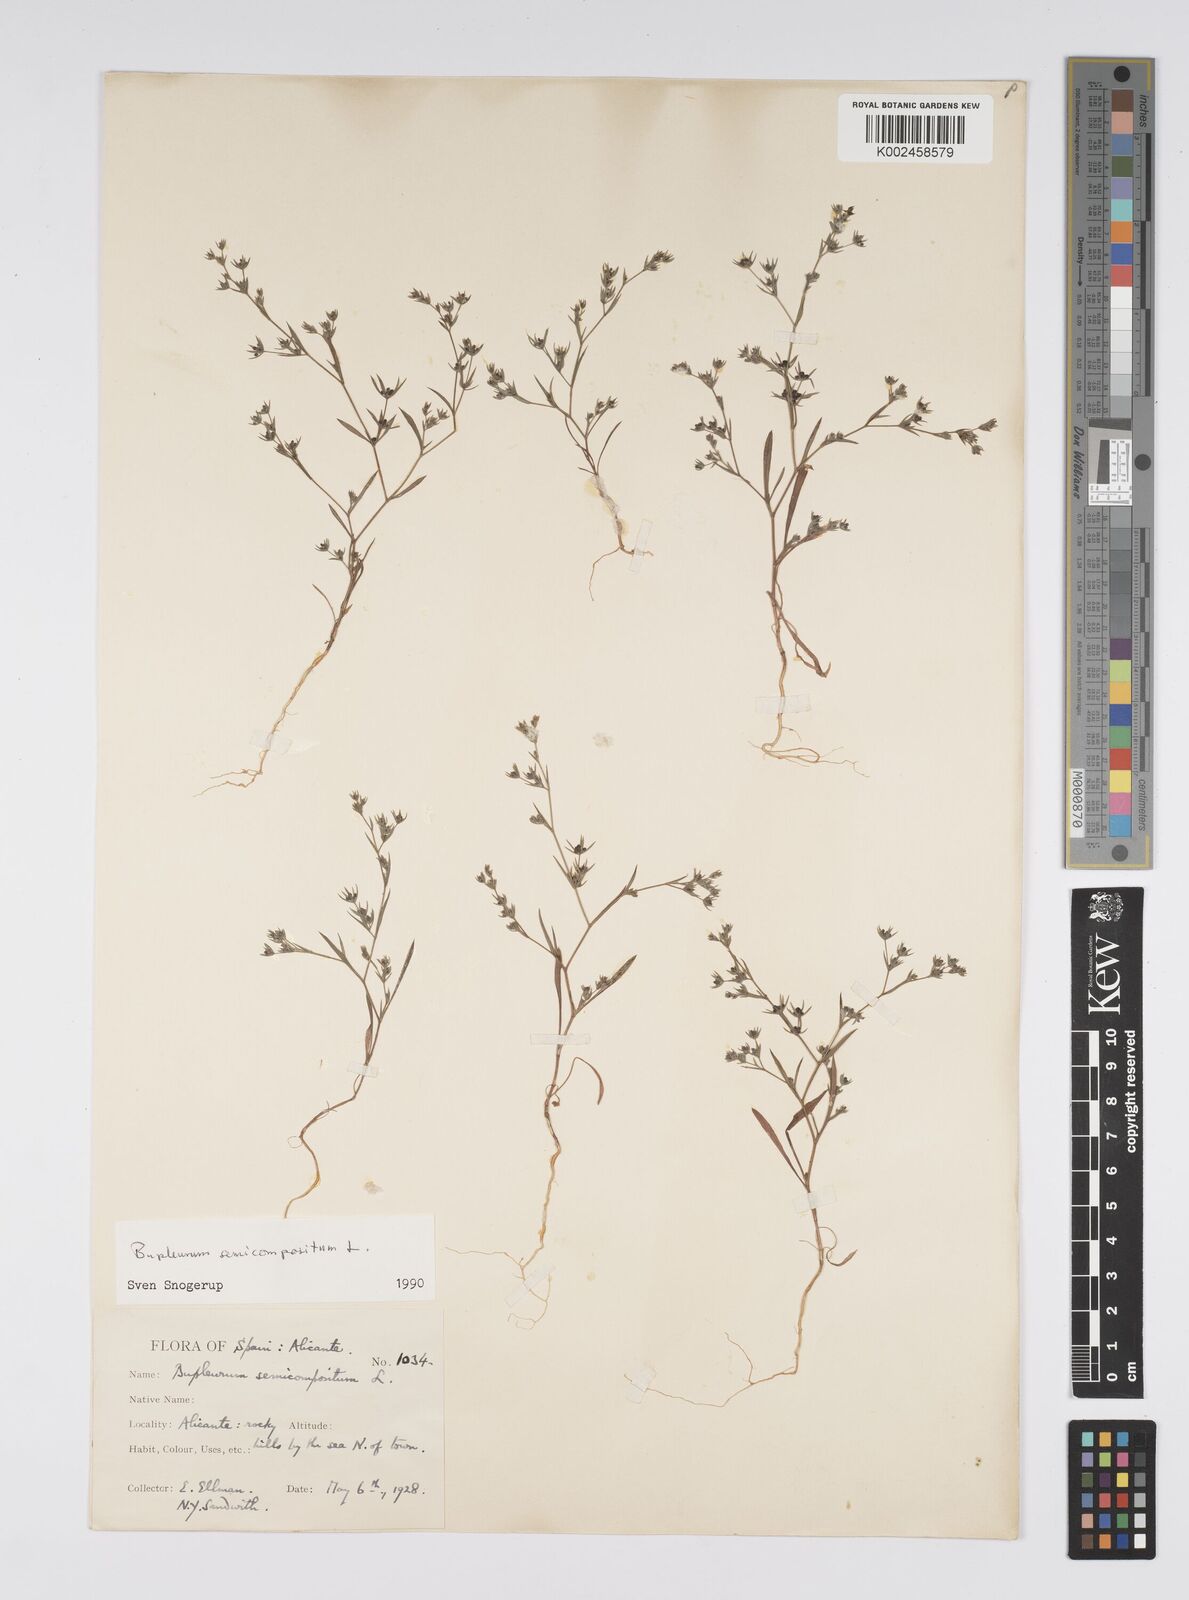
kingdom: Plantae
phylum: Tracheophyta
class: Magnoliopsida
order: Apiales
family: Apiaceae
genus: Bupleurum
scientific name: Bupleurum semicompositum
